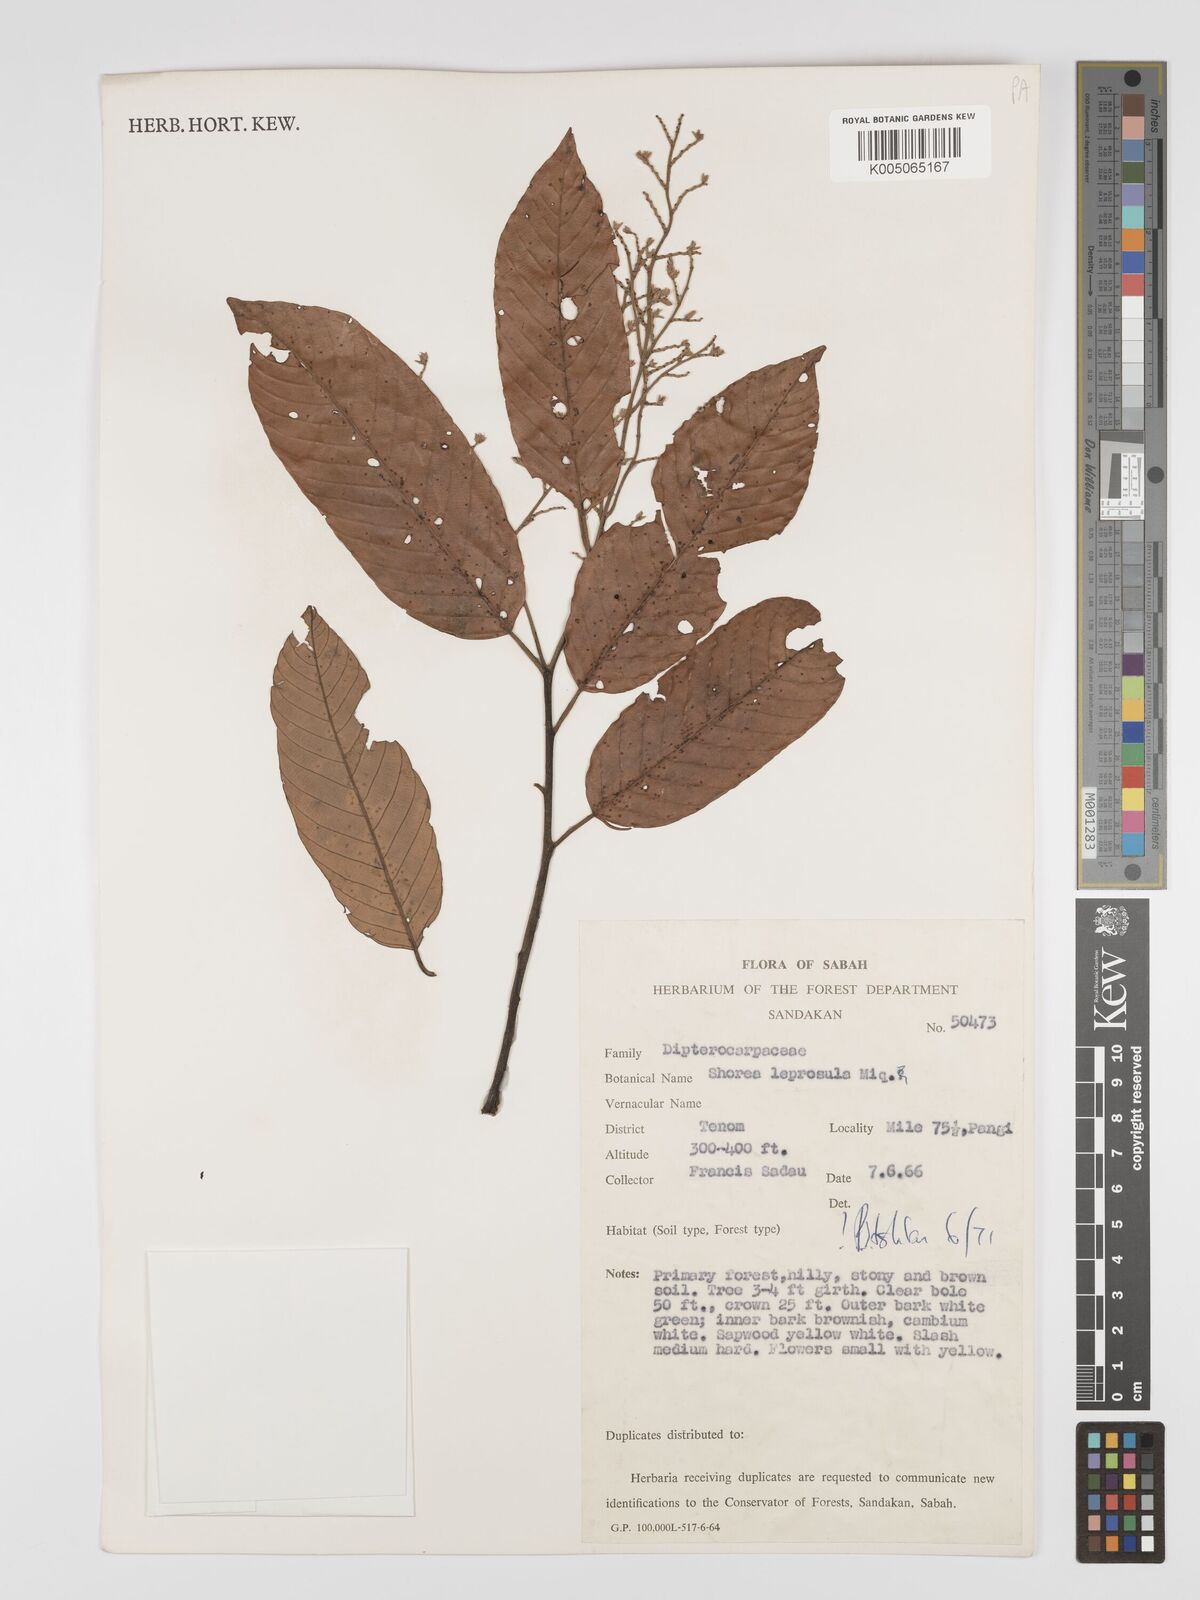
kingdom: Plantae
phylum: Tracheophyta
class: Magnoliopsida
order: Malvales
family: Dipterocarpaceae
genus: Shorea
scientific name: Shorea leprosula
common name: Light red meranti
